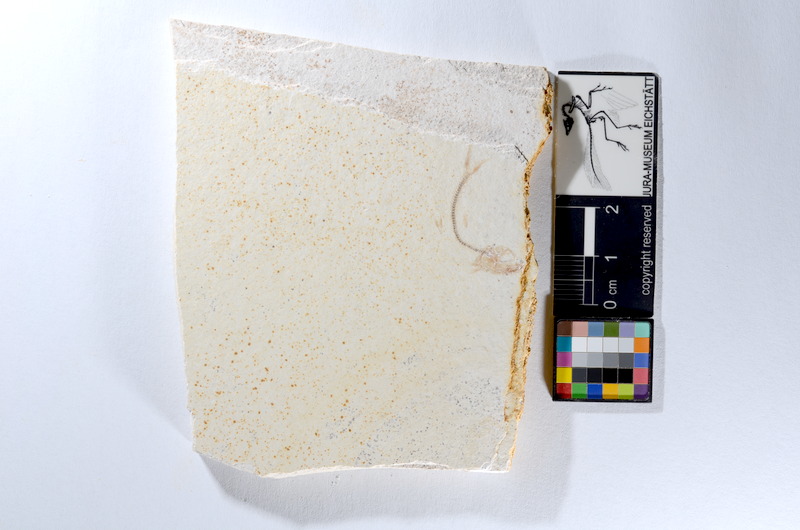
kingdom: Animalia
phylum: Chordata
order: Salmoniformes
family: Orthogonikleithridae
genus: Orthogonikleithrus
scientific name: Orthogonikleithrus hoelli
